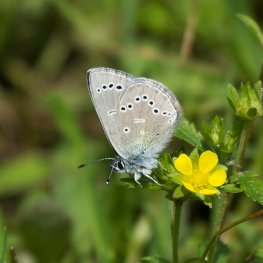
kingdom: Animalia
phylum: Arthropoda
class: Insecta
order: Lepidoptera
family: Lycaenidae
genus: Glaucopsyche
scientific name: Glaucopsyche lygdamus
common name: Silvery Blue
